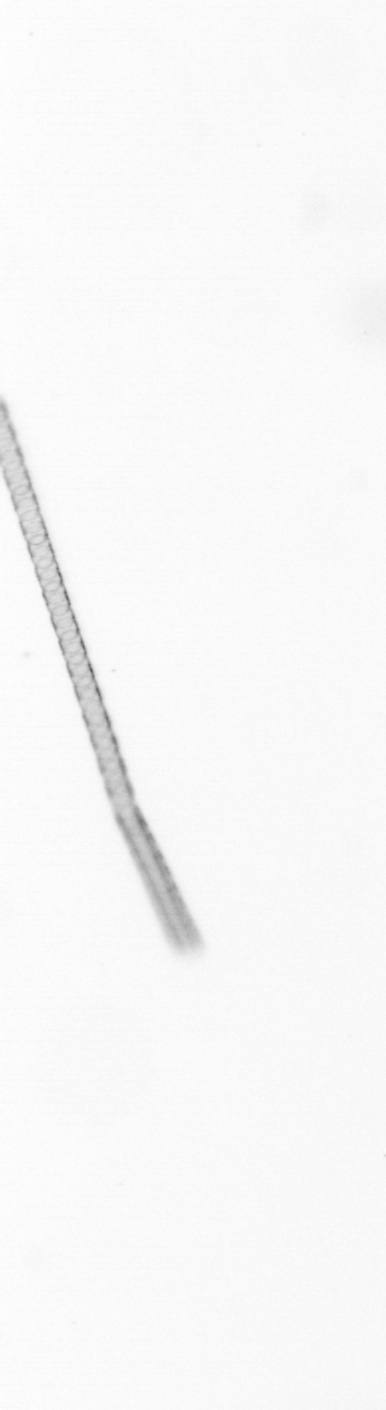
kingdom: Chromista
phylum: Ochrophyta
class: Bacillariophyceae
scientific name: Bacillariophyceae
